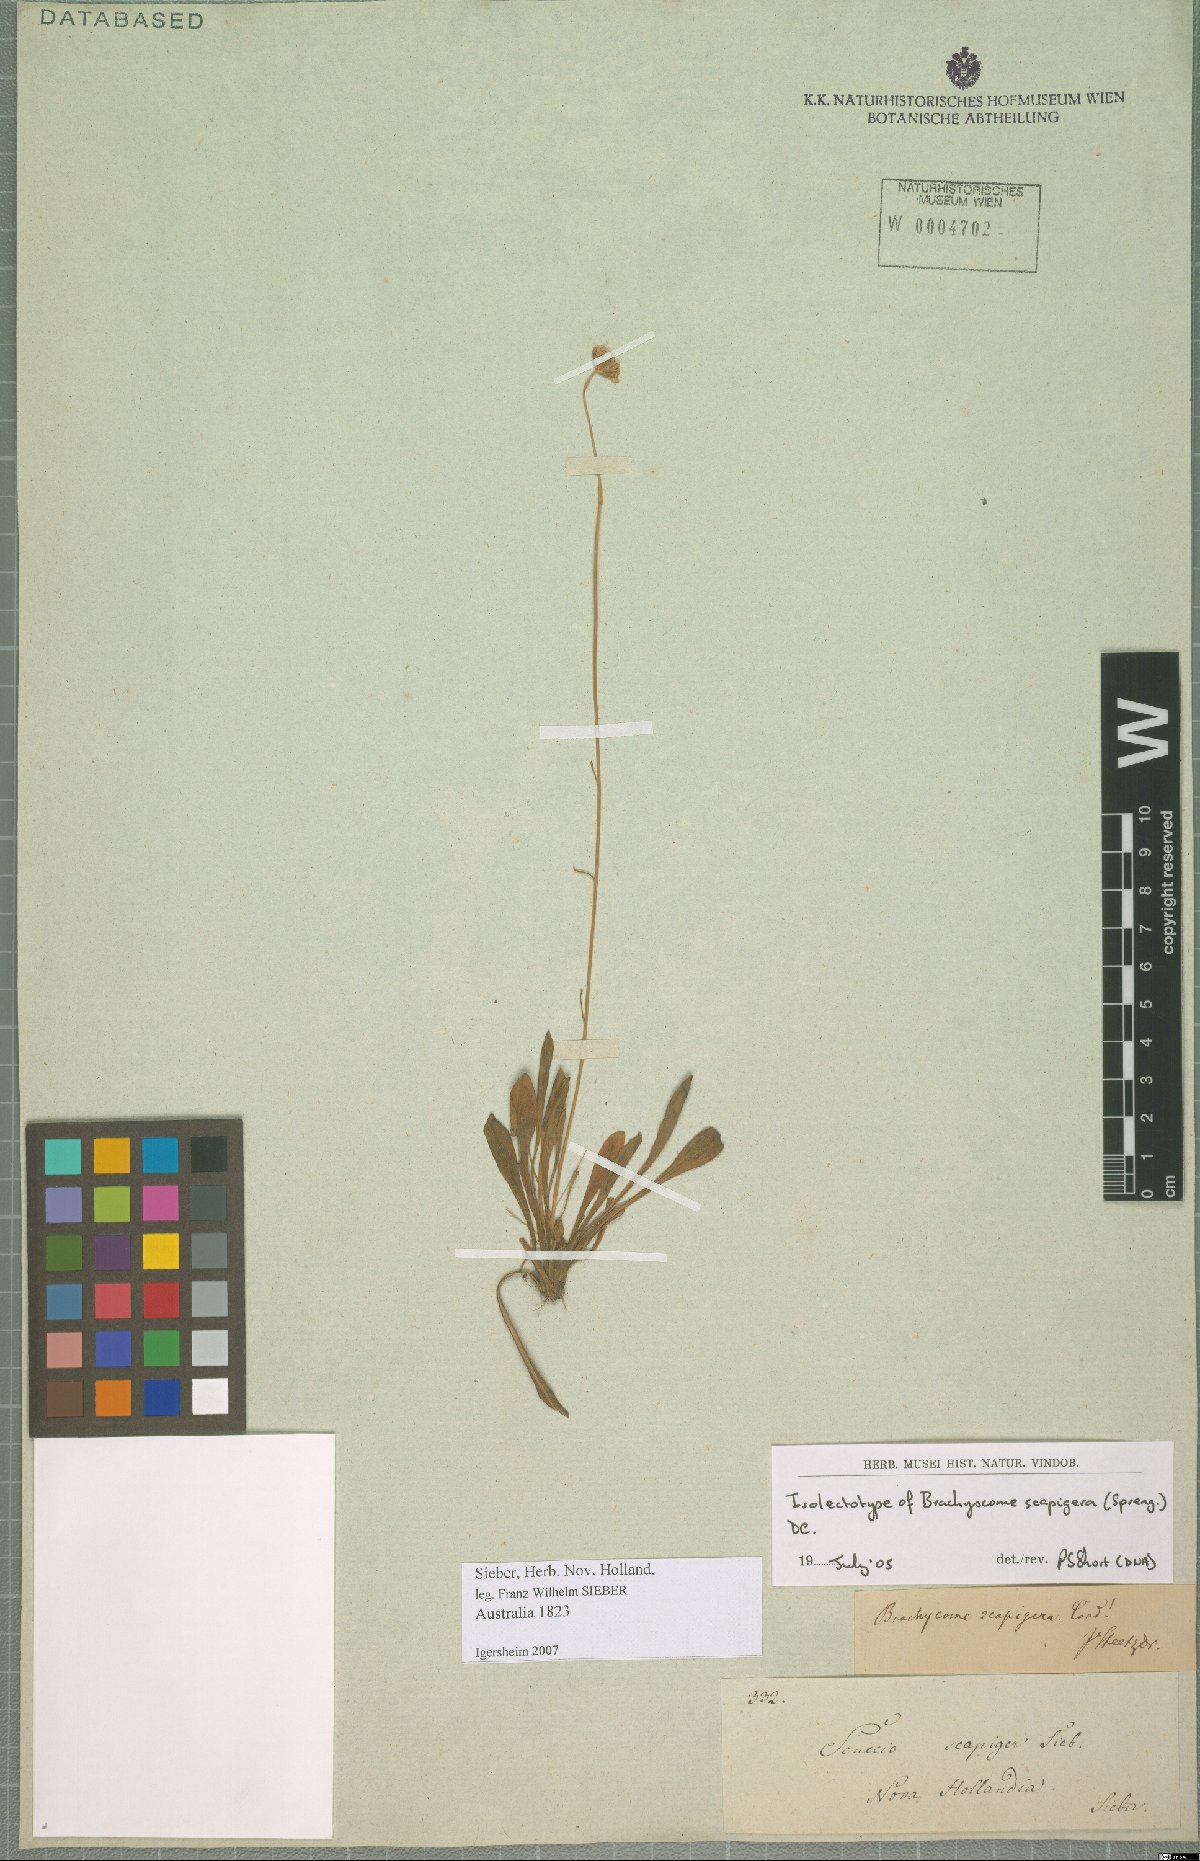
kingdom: Plantae
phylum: Tracheophyta
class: Magnoliopsida
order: Asterales
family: Asteraceae
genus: Brachyscome
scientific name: Brachyscome scapigera
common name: Tufted daisy
